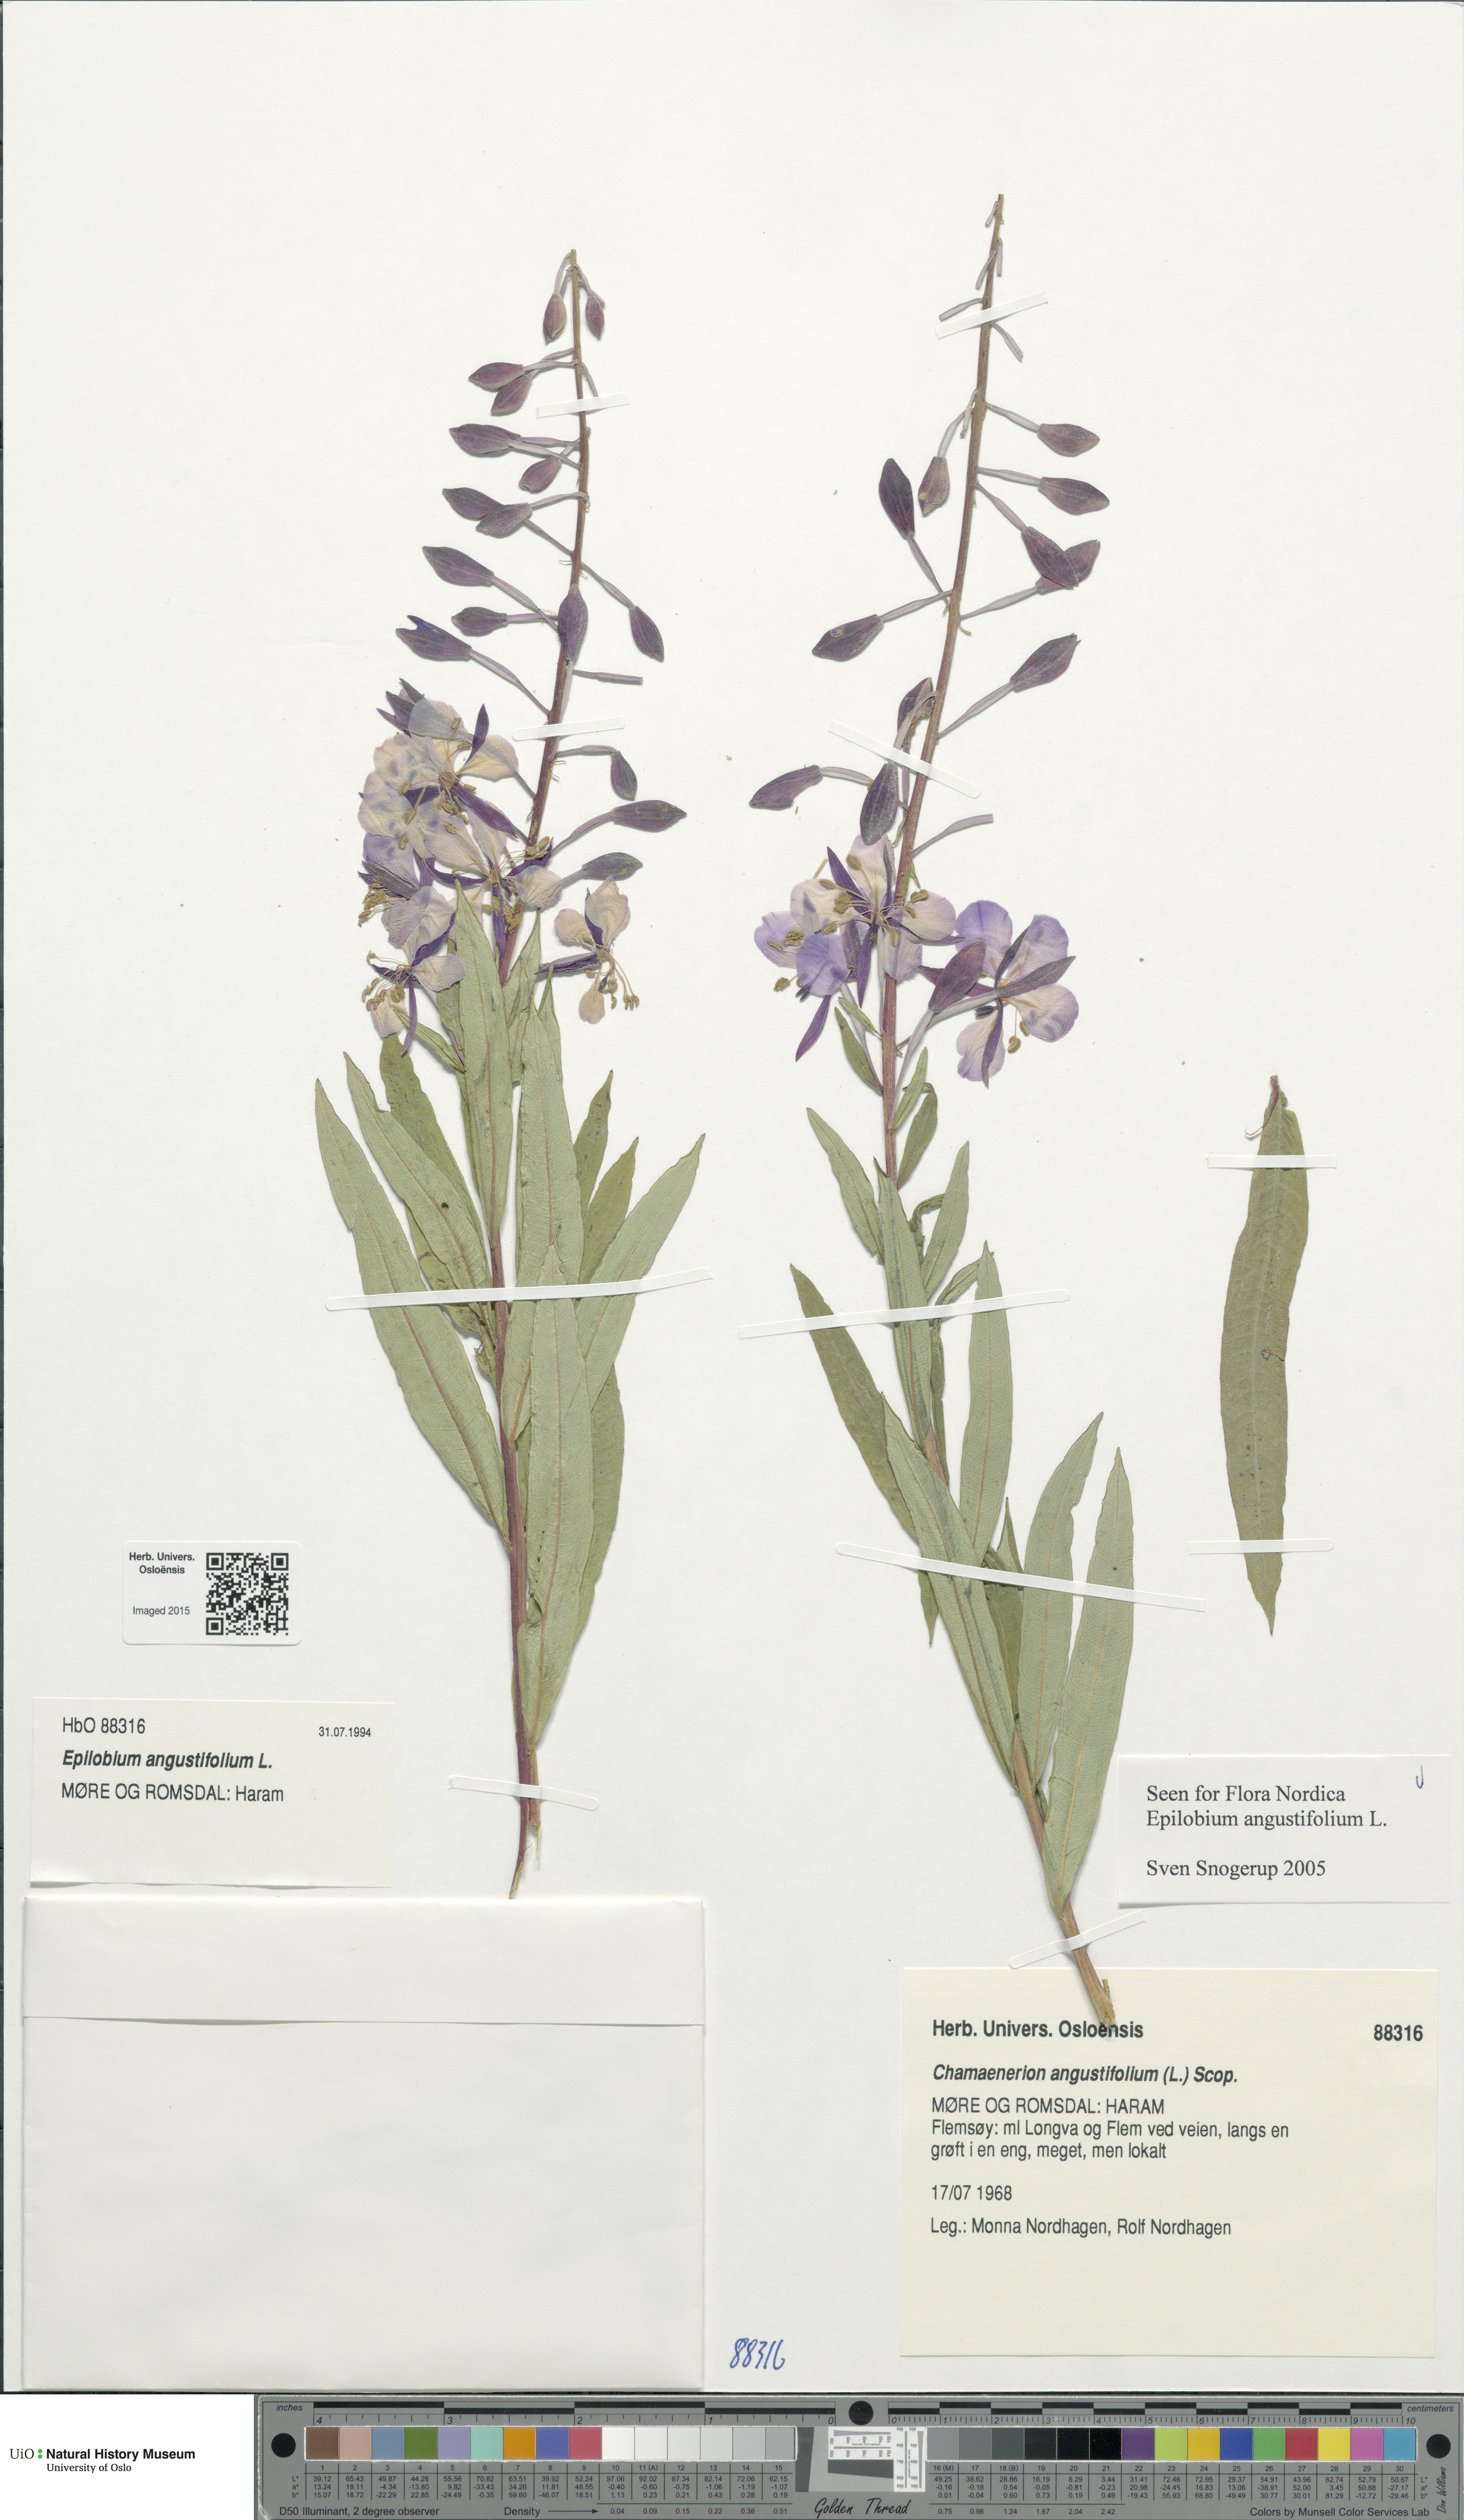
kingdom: Plantae
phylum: Tracheophyta
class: Magnoliopsida
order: Myrtales
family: Onagraceae
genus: Chamaenerion
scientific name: Chamaenerion angustifolium
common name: Fireweed
